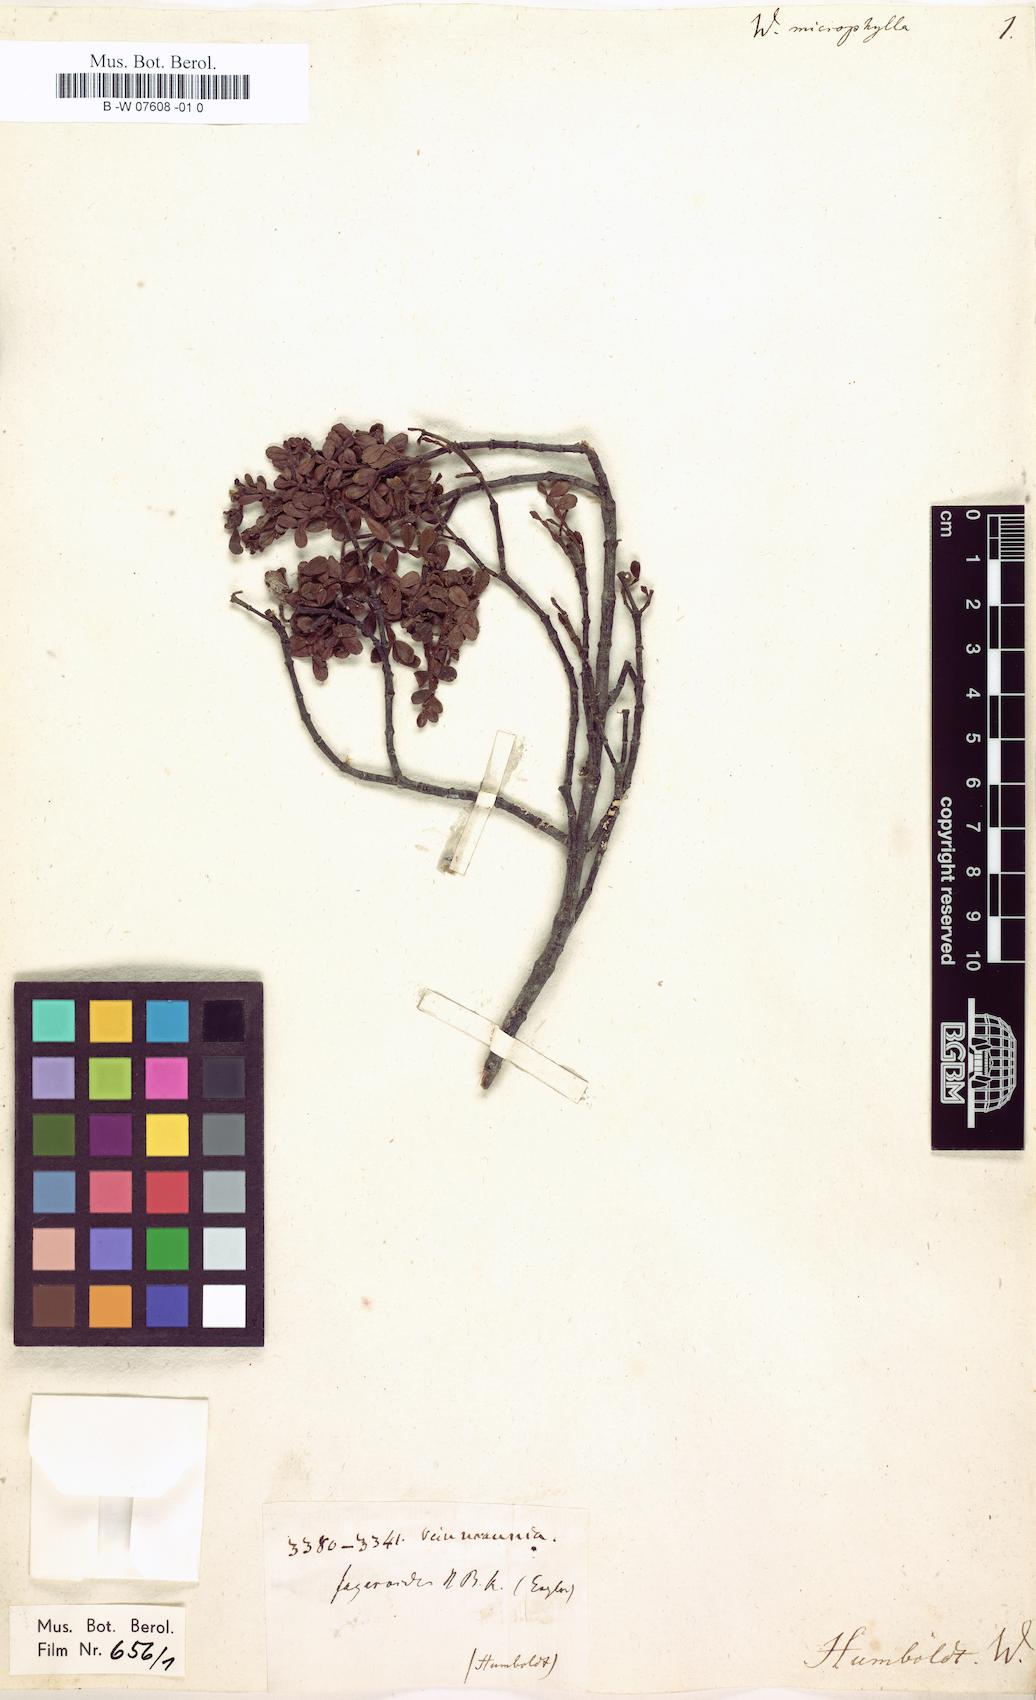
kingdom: Plantae
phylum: Tracheophyta
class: Magnoliopsida
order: Oxalidales
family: Cunoniaceae
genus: Weinmannia
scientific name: Weinmannia microphylla
